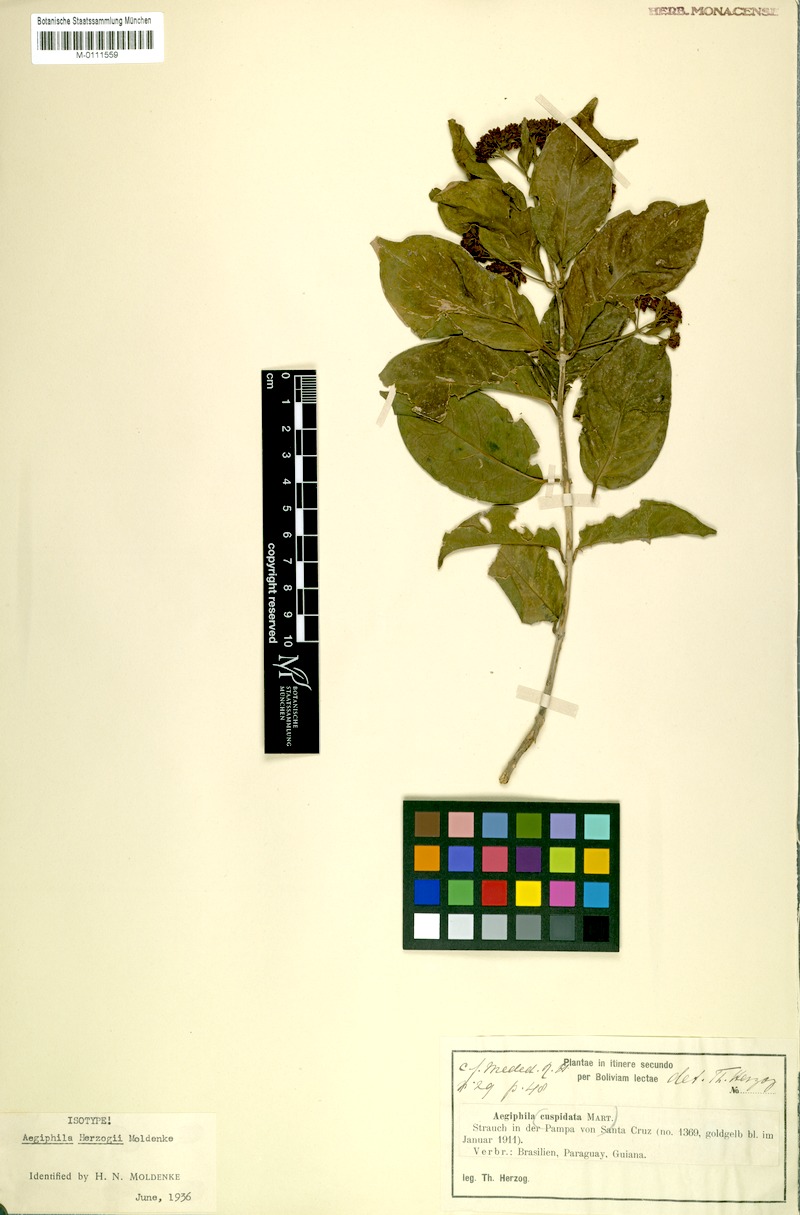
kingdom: Plantae
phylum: Tracheophyta
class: Magnoliopsida
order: Lamiales
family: Lamiaceae
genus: Aegiphila
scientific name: Aegiphila herzogii
